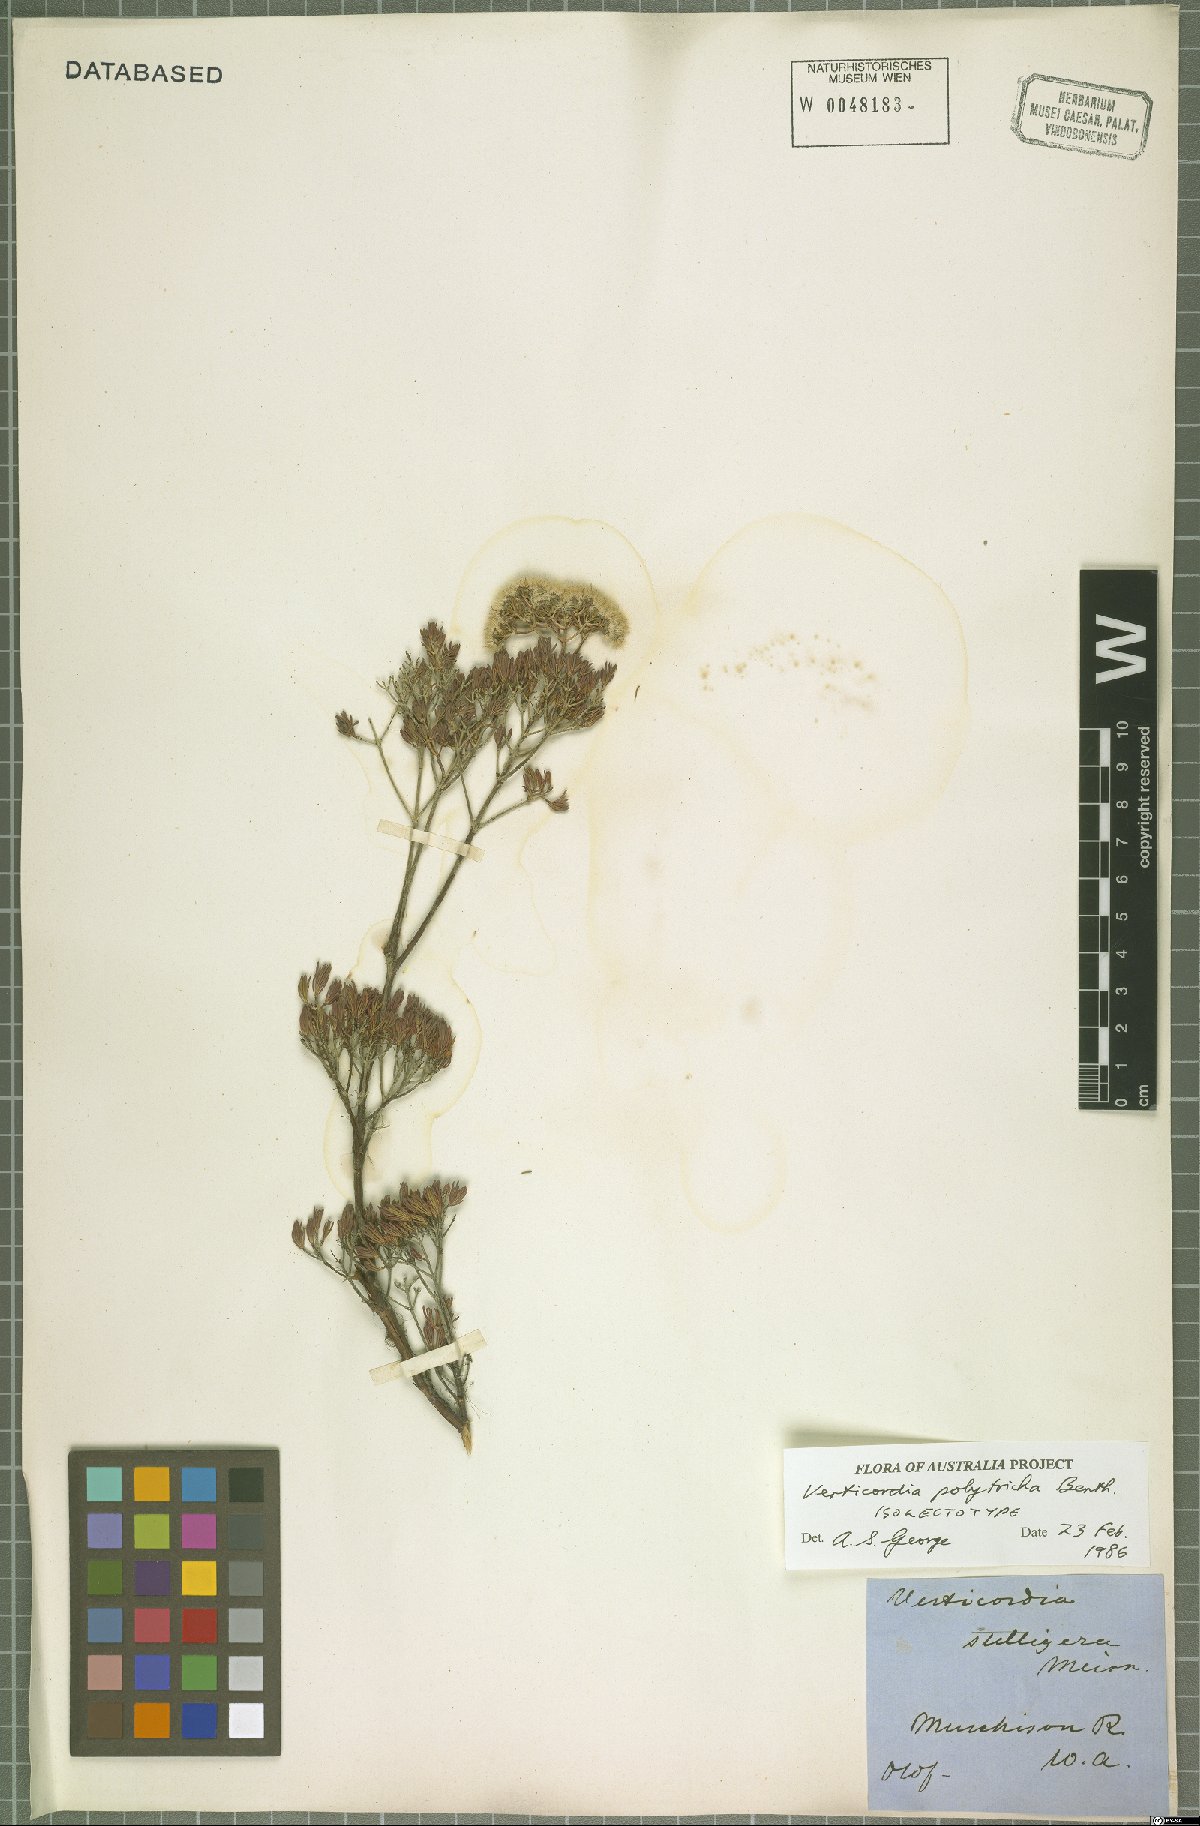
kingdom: Plantae
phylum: Tracheophyta
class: Magnoliopsida
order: Myrtales
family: Myrtaceae
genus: Verticordia
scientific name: Verticordia polytricha
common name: Northern-cauliflower
